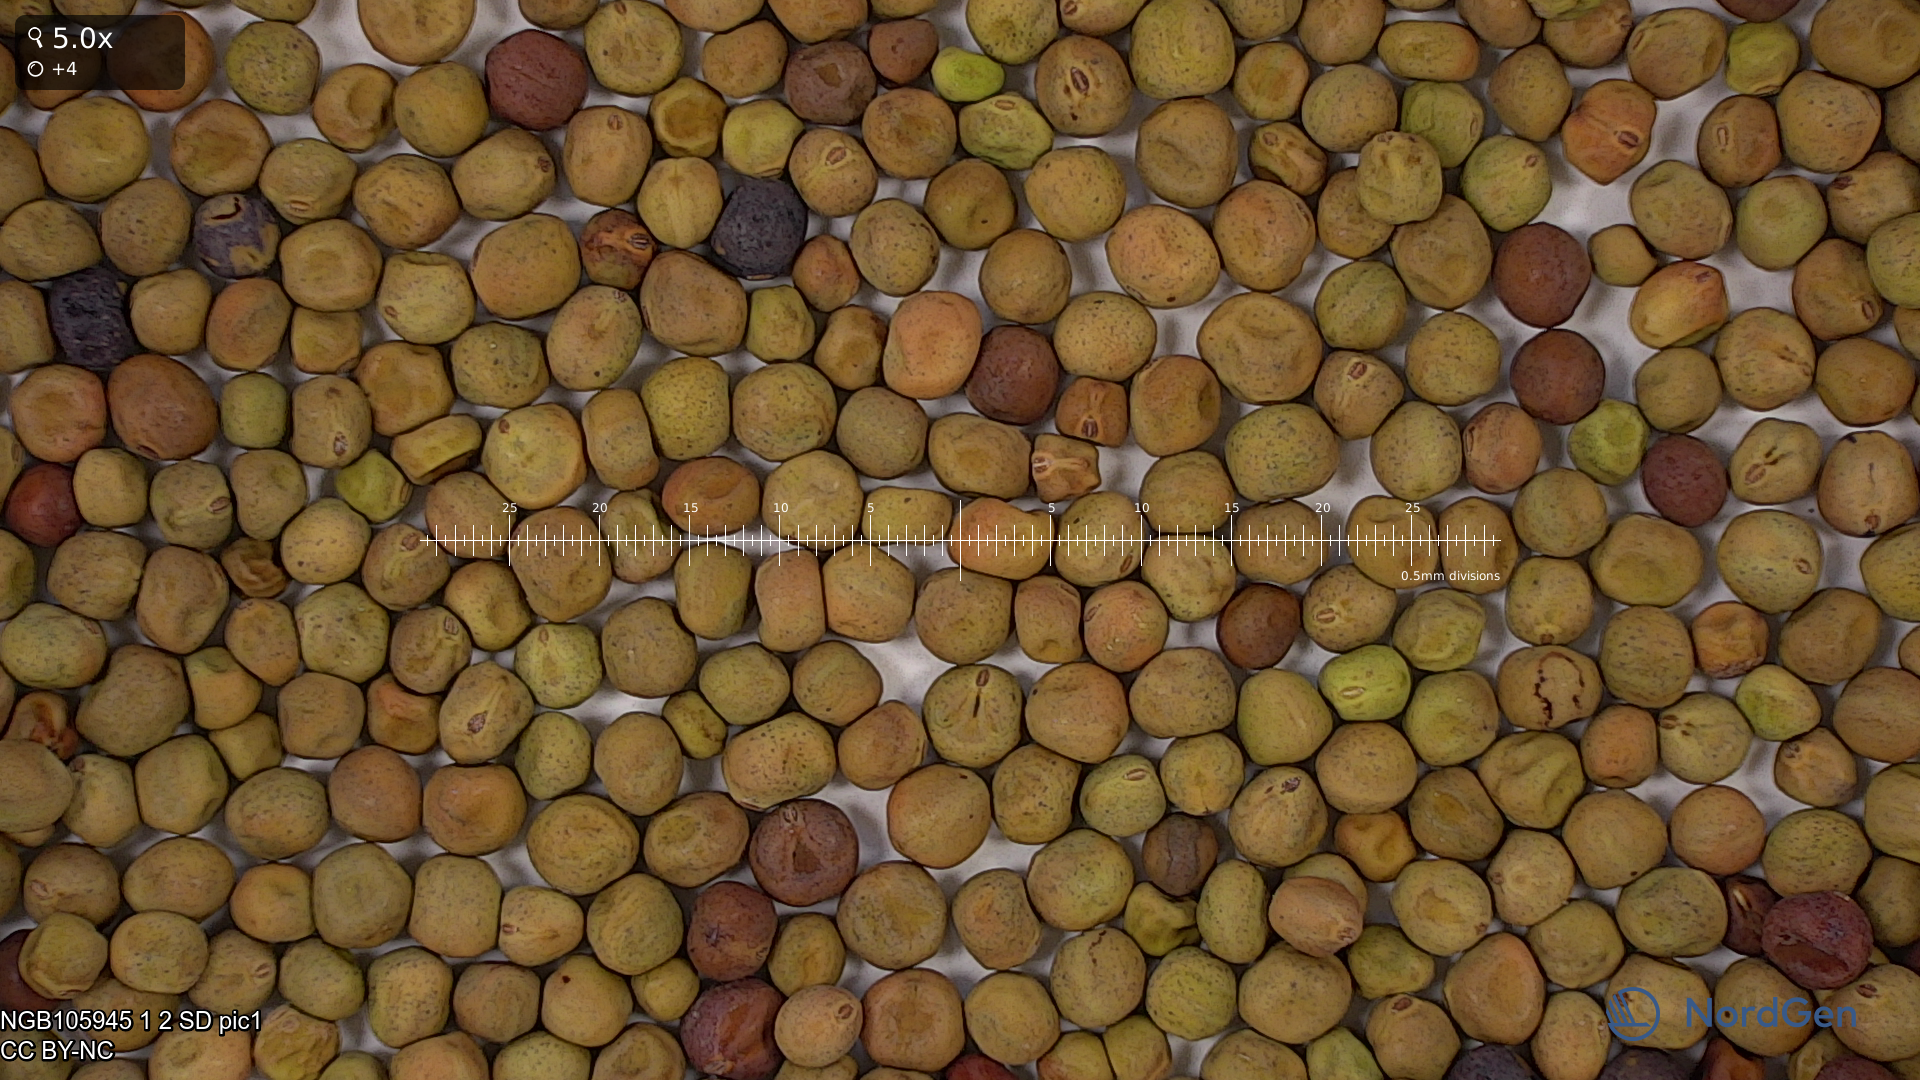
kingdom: Plantae
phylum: Tracheophyta
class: Magnoliopsida
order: Fabales
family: Fabaceae
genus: Lathyrus
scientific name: Lathyrus oleraceus
